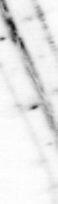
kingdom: Animalia
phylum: Chaetognatha
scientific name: Chaetognatha
